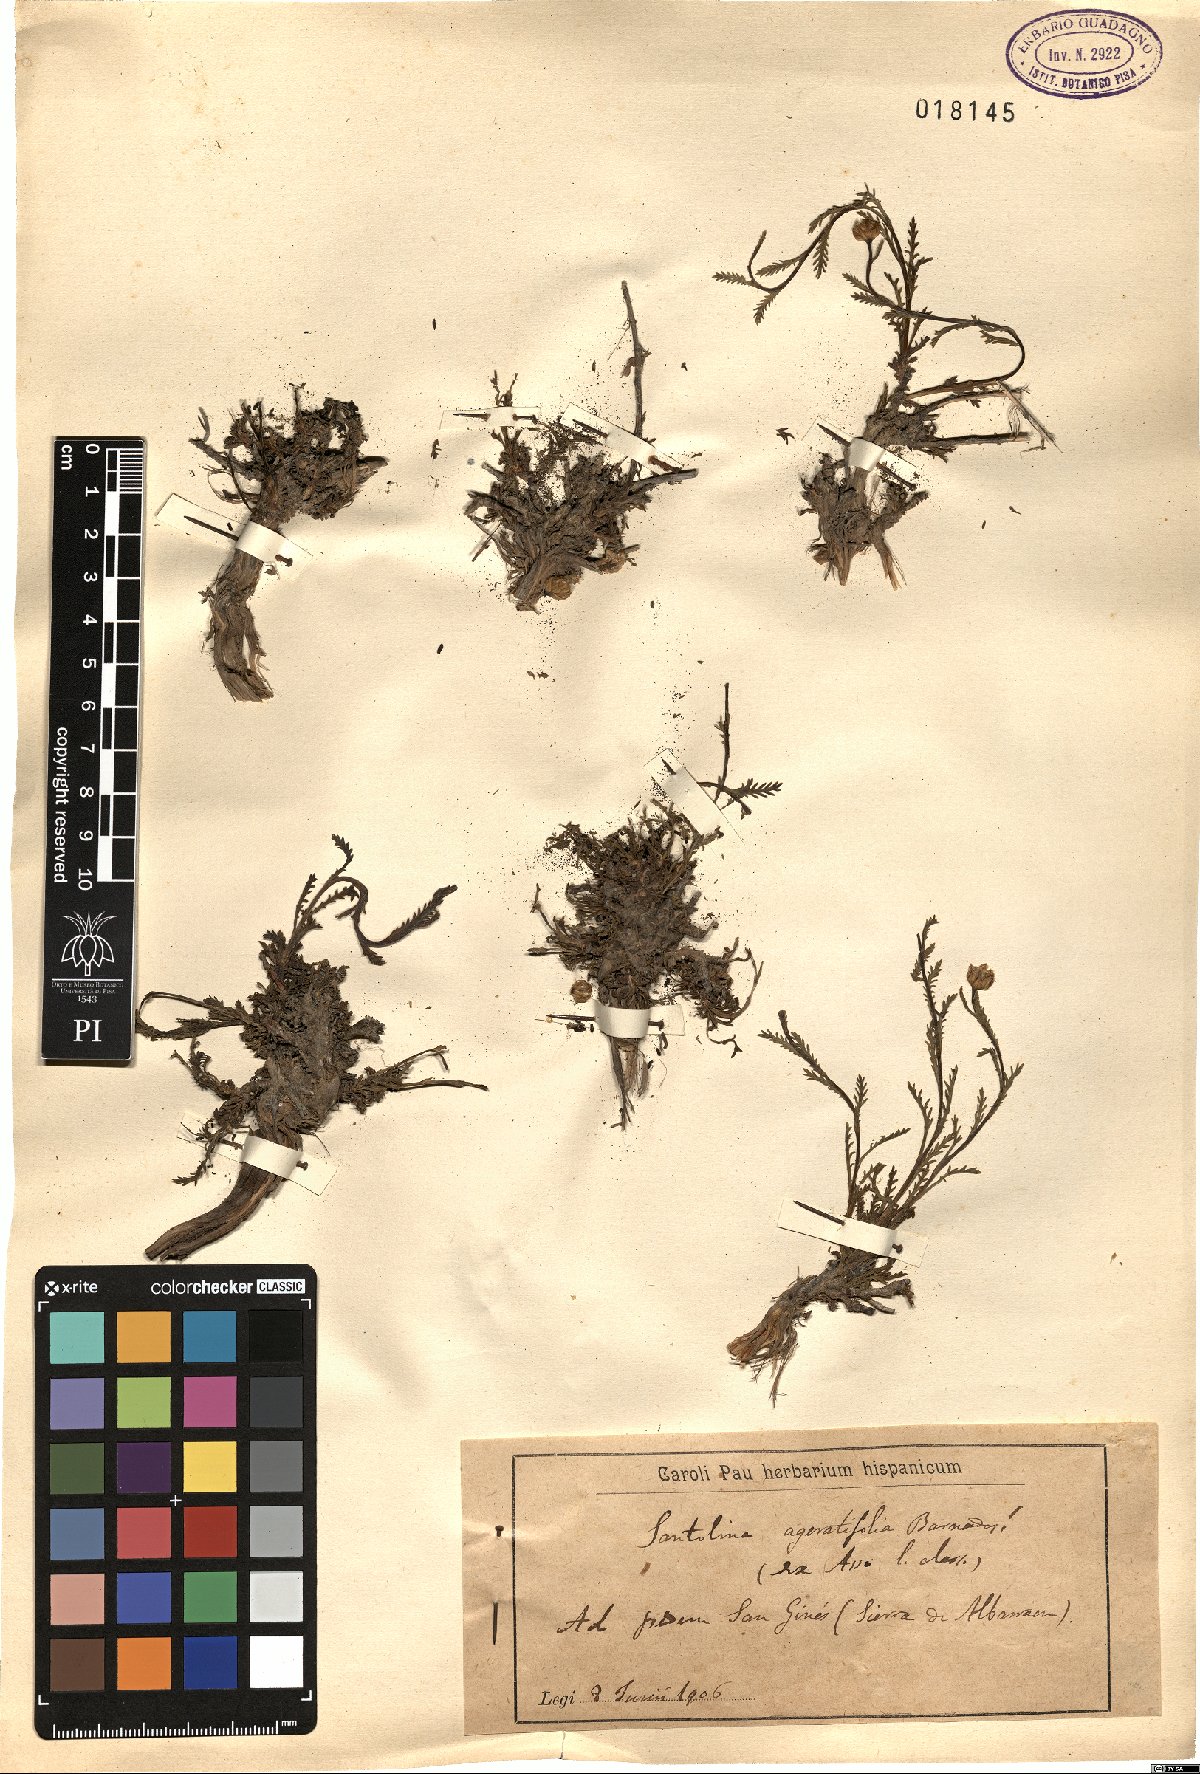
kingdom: Plantae
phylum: Tracheophyta
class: Magnoliopsida
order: Asterales
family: Asteraceae
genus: Santolina
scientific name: Santolina ageratifolia
